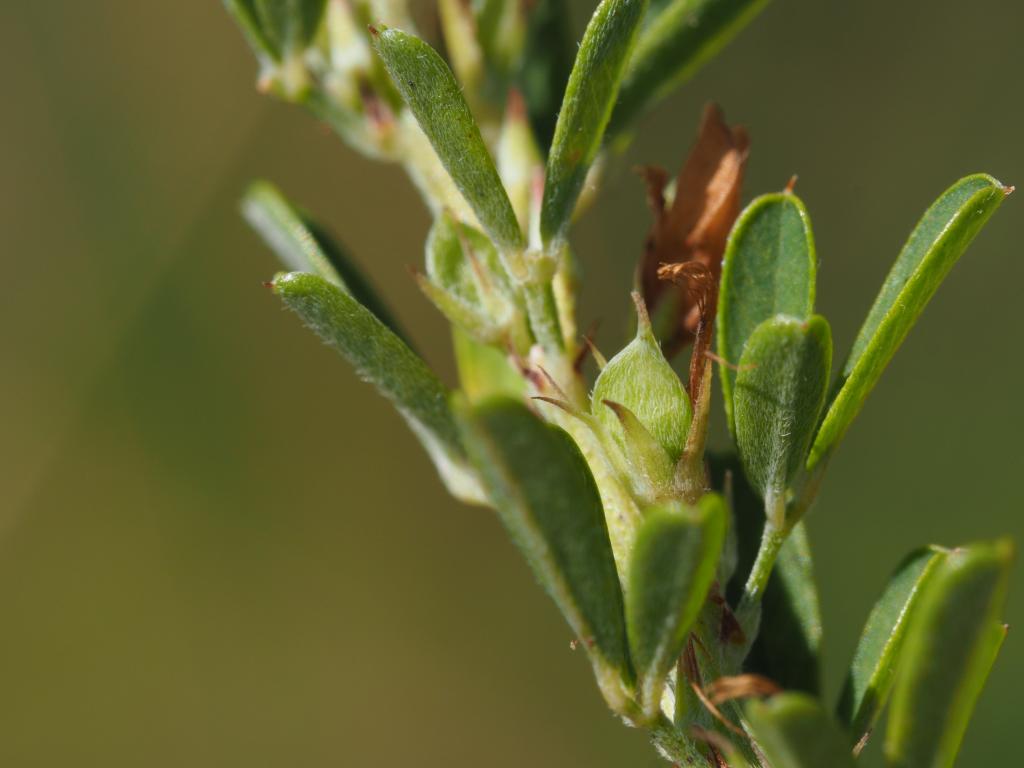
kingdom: Plantae
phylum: Tracheophyta
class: Magnoliopsida
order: Fabales
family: Fabaceae
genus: Lespedeza
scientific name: Lespedeza cuneata
